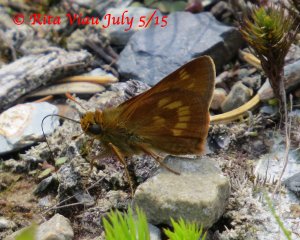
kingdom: Animalia
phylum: Arthropoda
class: Insecta
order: Lepidoptera
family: Hesperiidae
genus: Polites
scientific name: Polites
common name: Long Dash Skipper
